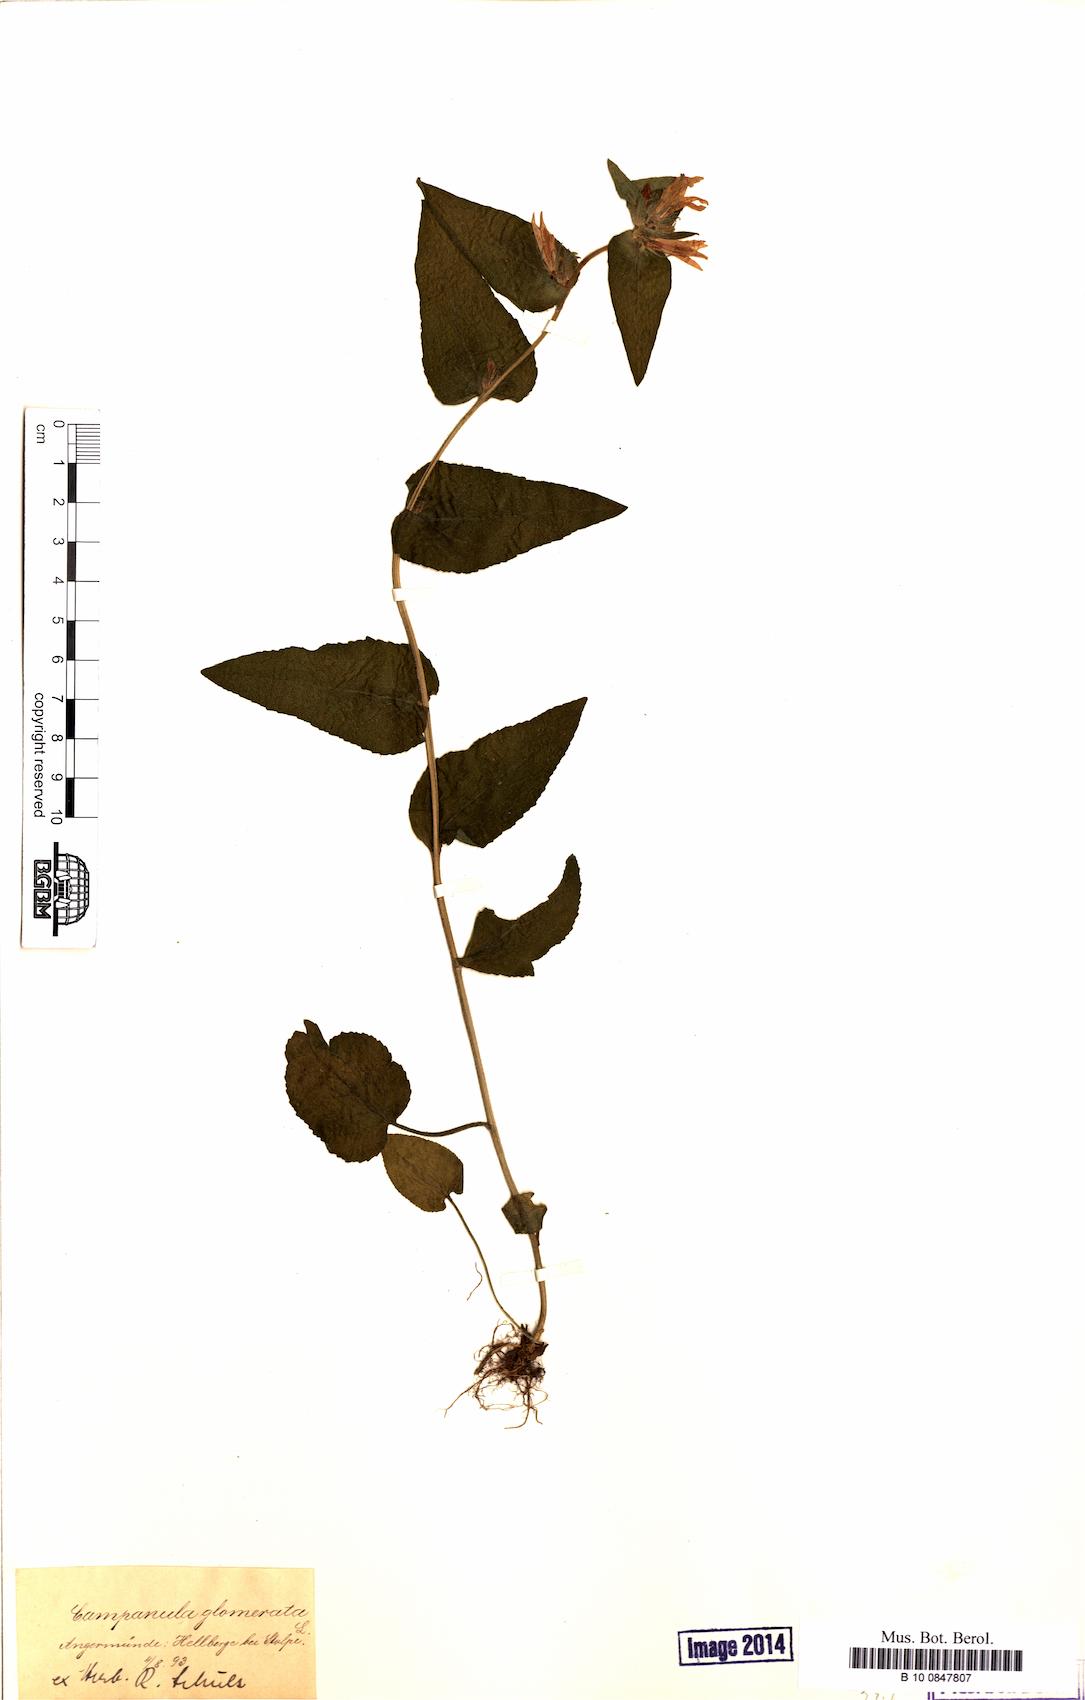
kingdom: Plantae
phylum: Tracheophyta
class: Magnoliopsida
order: Asterales
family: Campanulaceae
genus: Campanula
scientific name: Campanula glomerata
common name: Clustered bellflower
